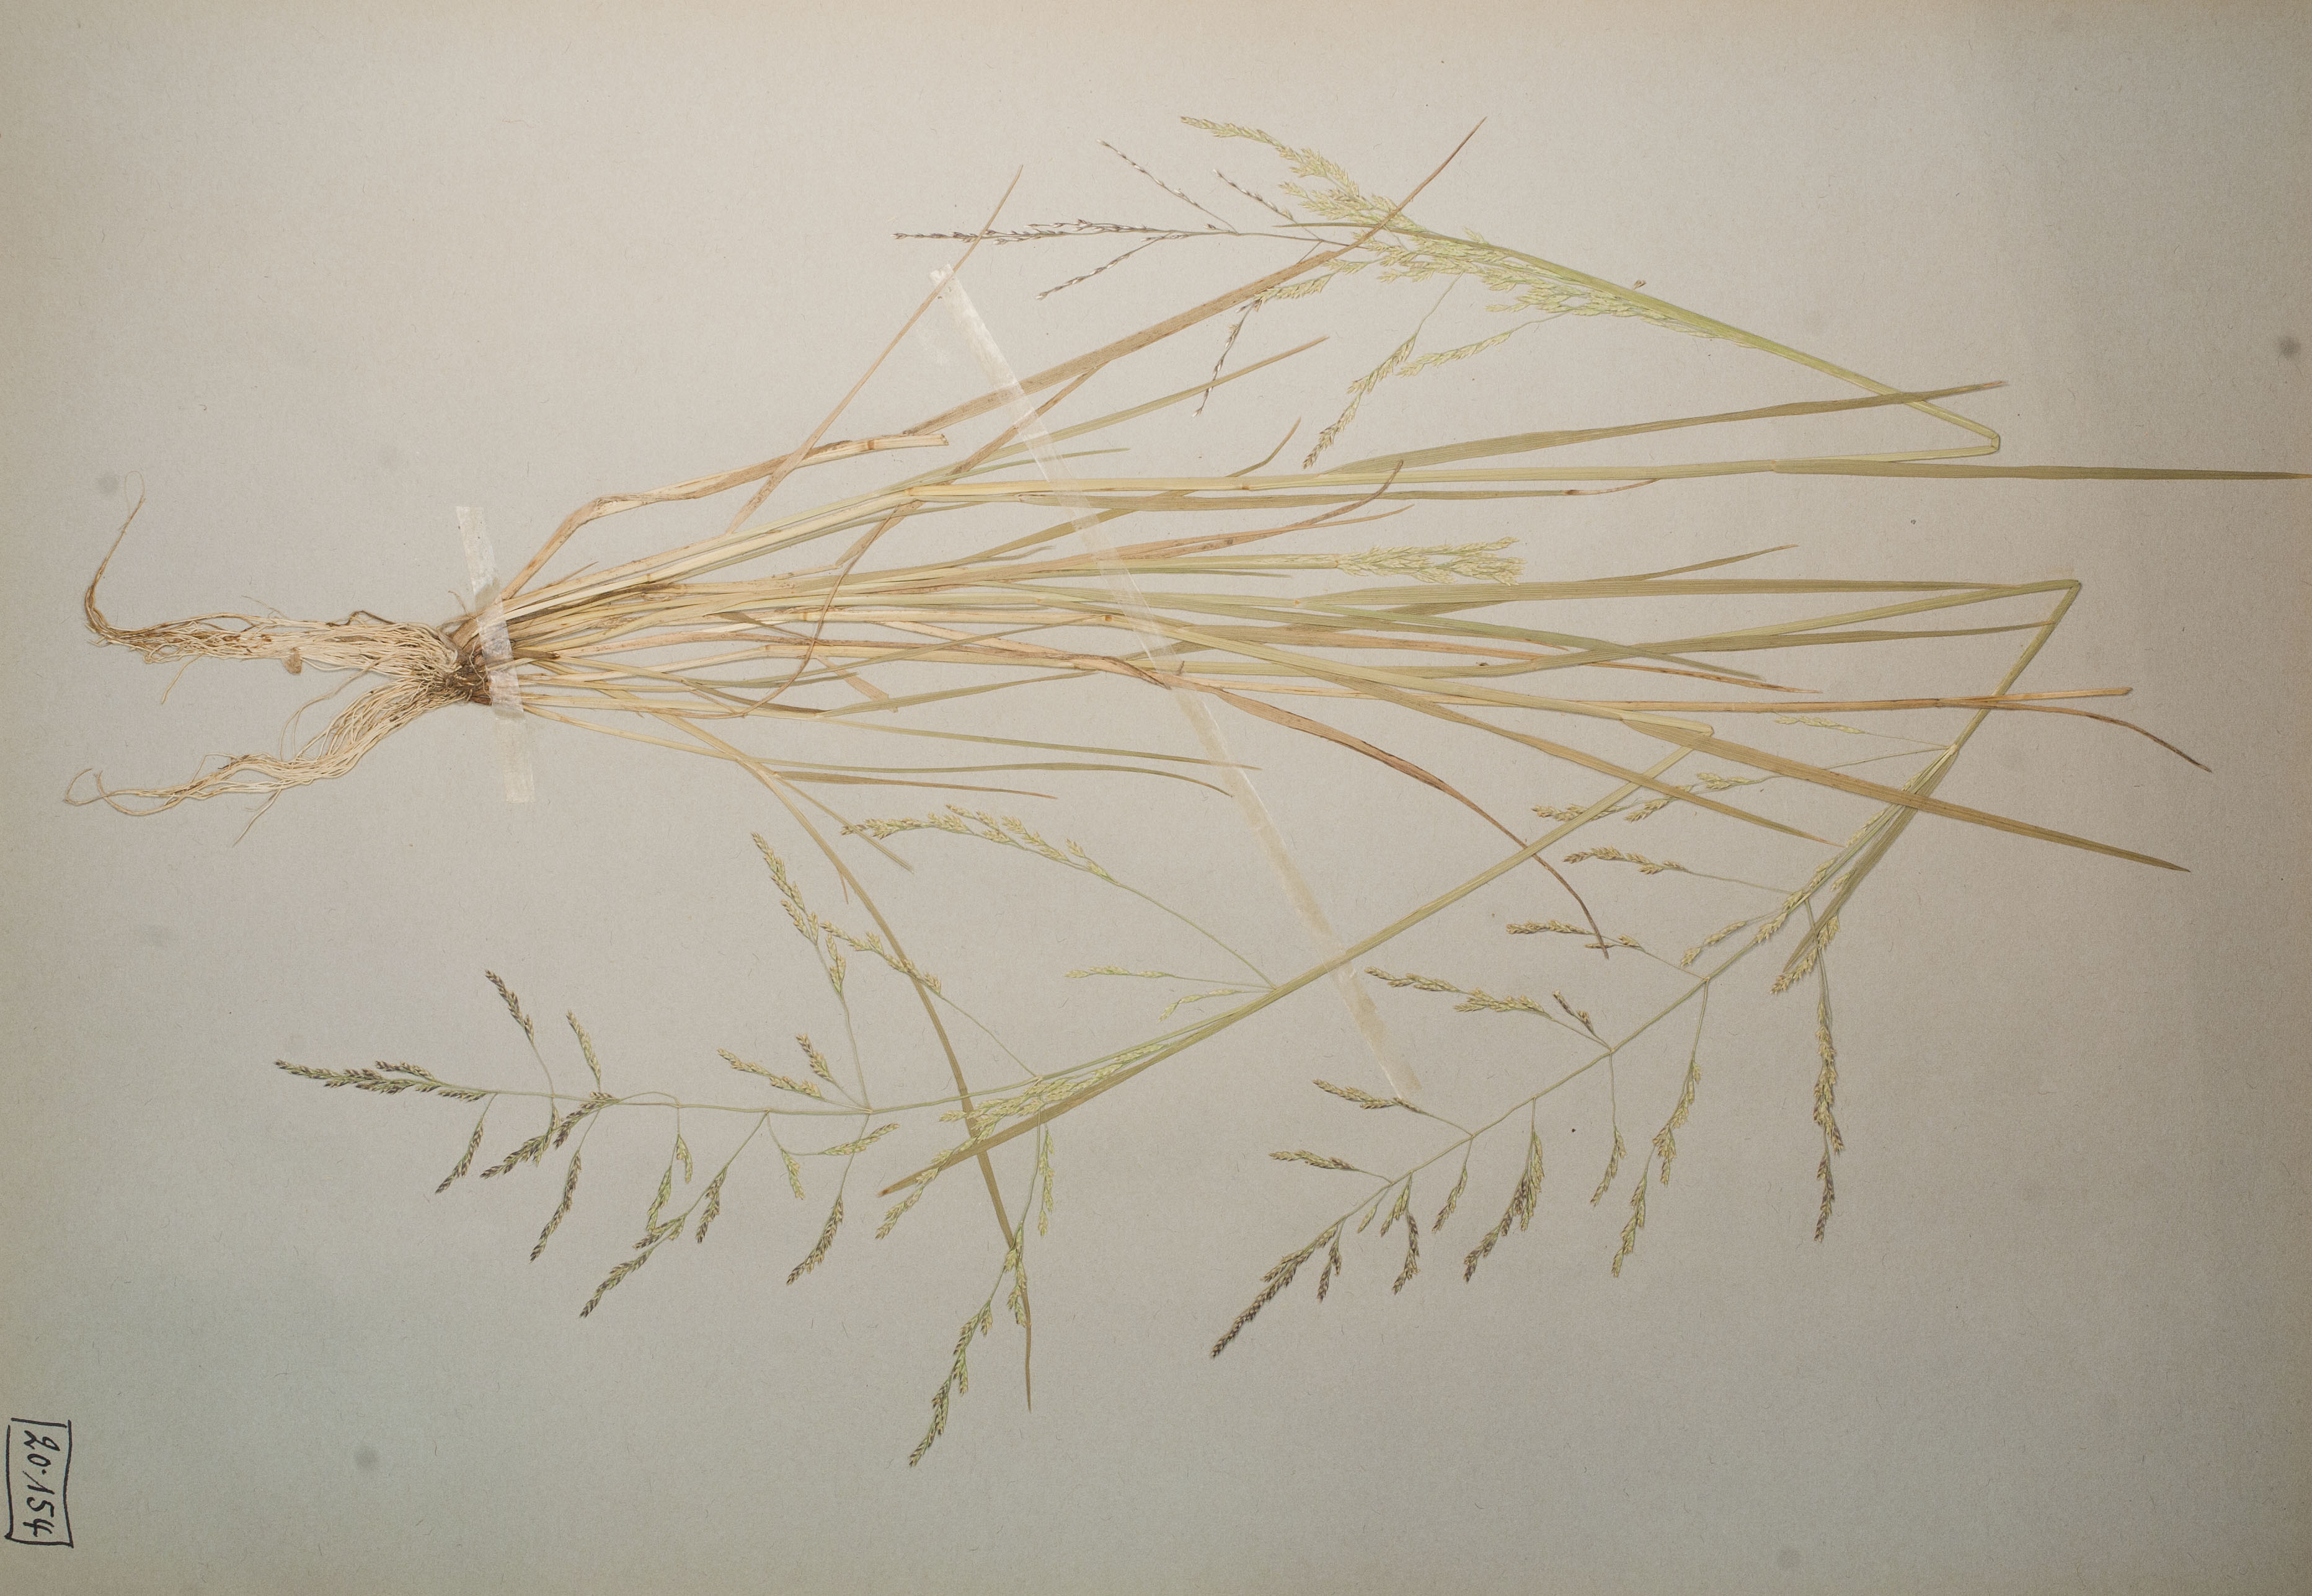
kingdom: Plantae
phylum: Tracheophyta
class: Liliopsida
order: Poales
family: Poaceae
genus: Puccinellia
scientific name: Puccinellia distans
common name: Weeping alkaligrass
